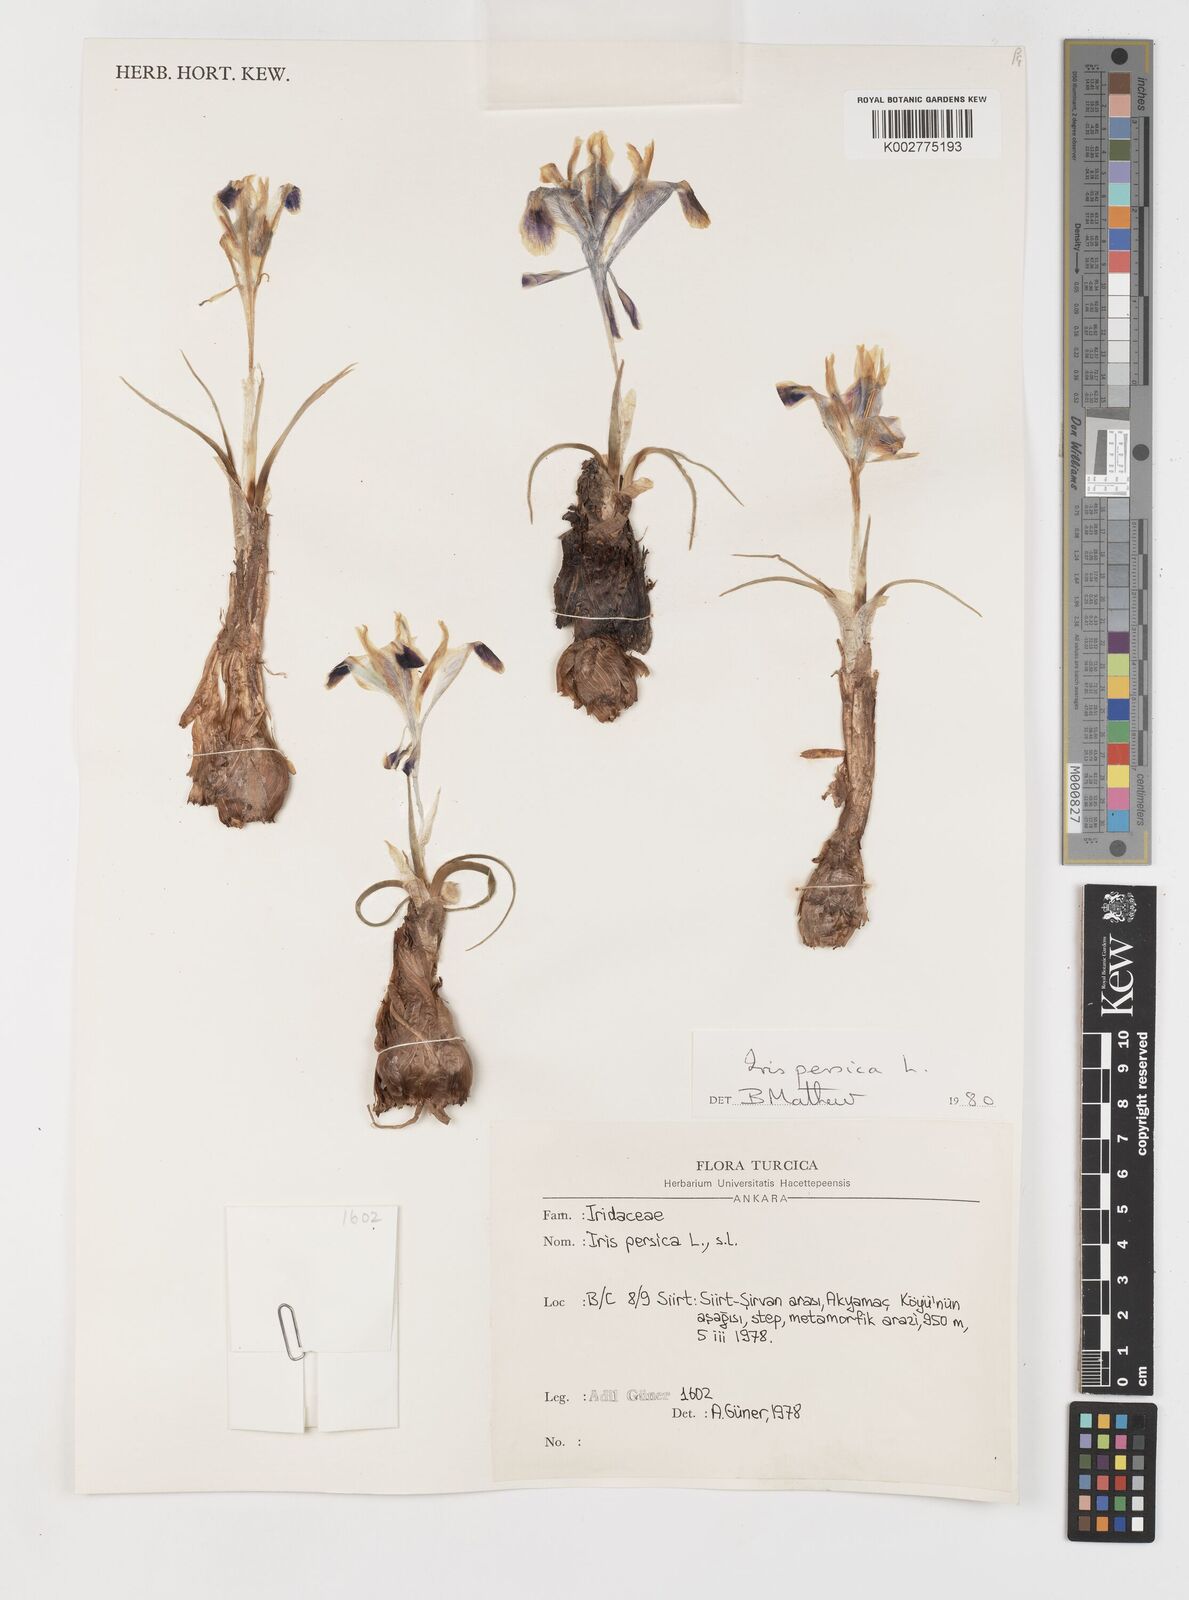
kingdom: Plantae
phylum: Tracheophyta
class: Liliopsida
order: Asparagales
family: Iridaceae
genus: Iris
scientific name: Iris persica
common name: Persian iris
